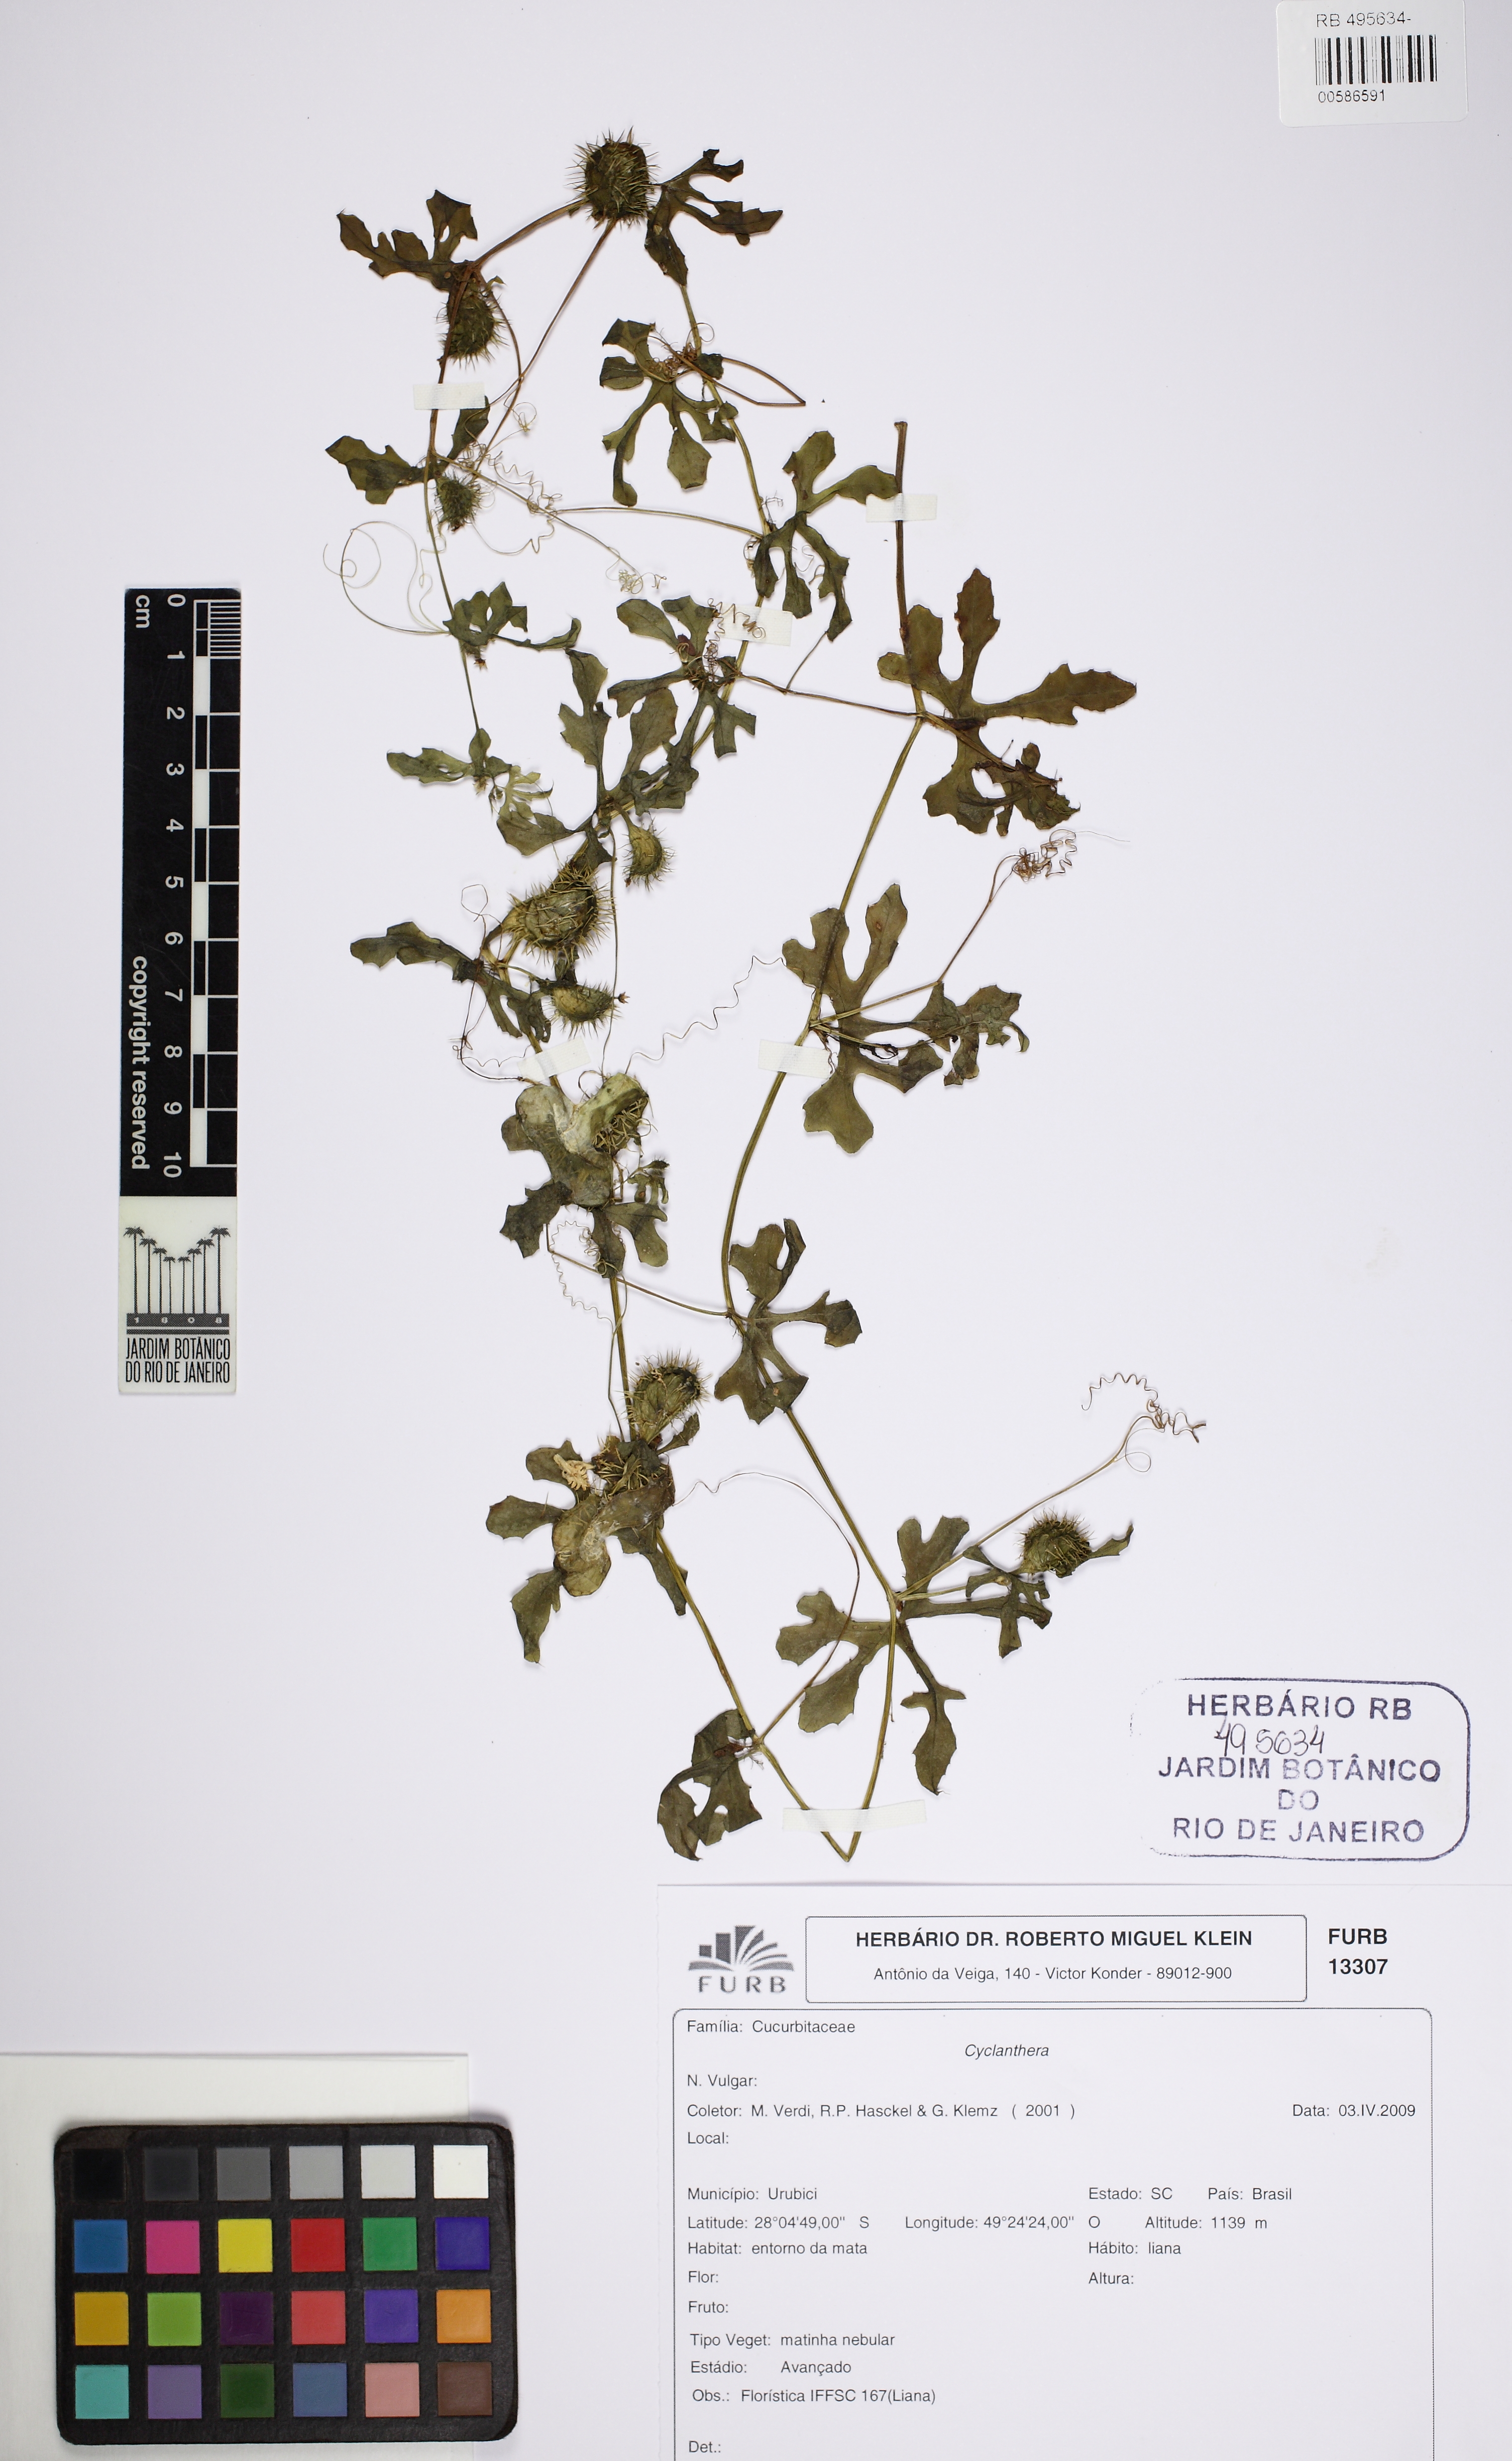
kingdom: Plantae
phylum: Tracheophyta
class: Magnoliopsida
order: Cucurbitales
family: Cucurbitaceae
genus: Cyclanthera
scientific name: Cyclanthera
